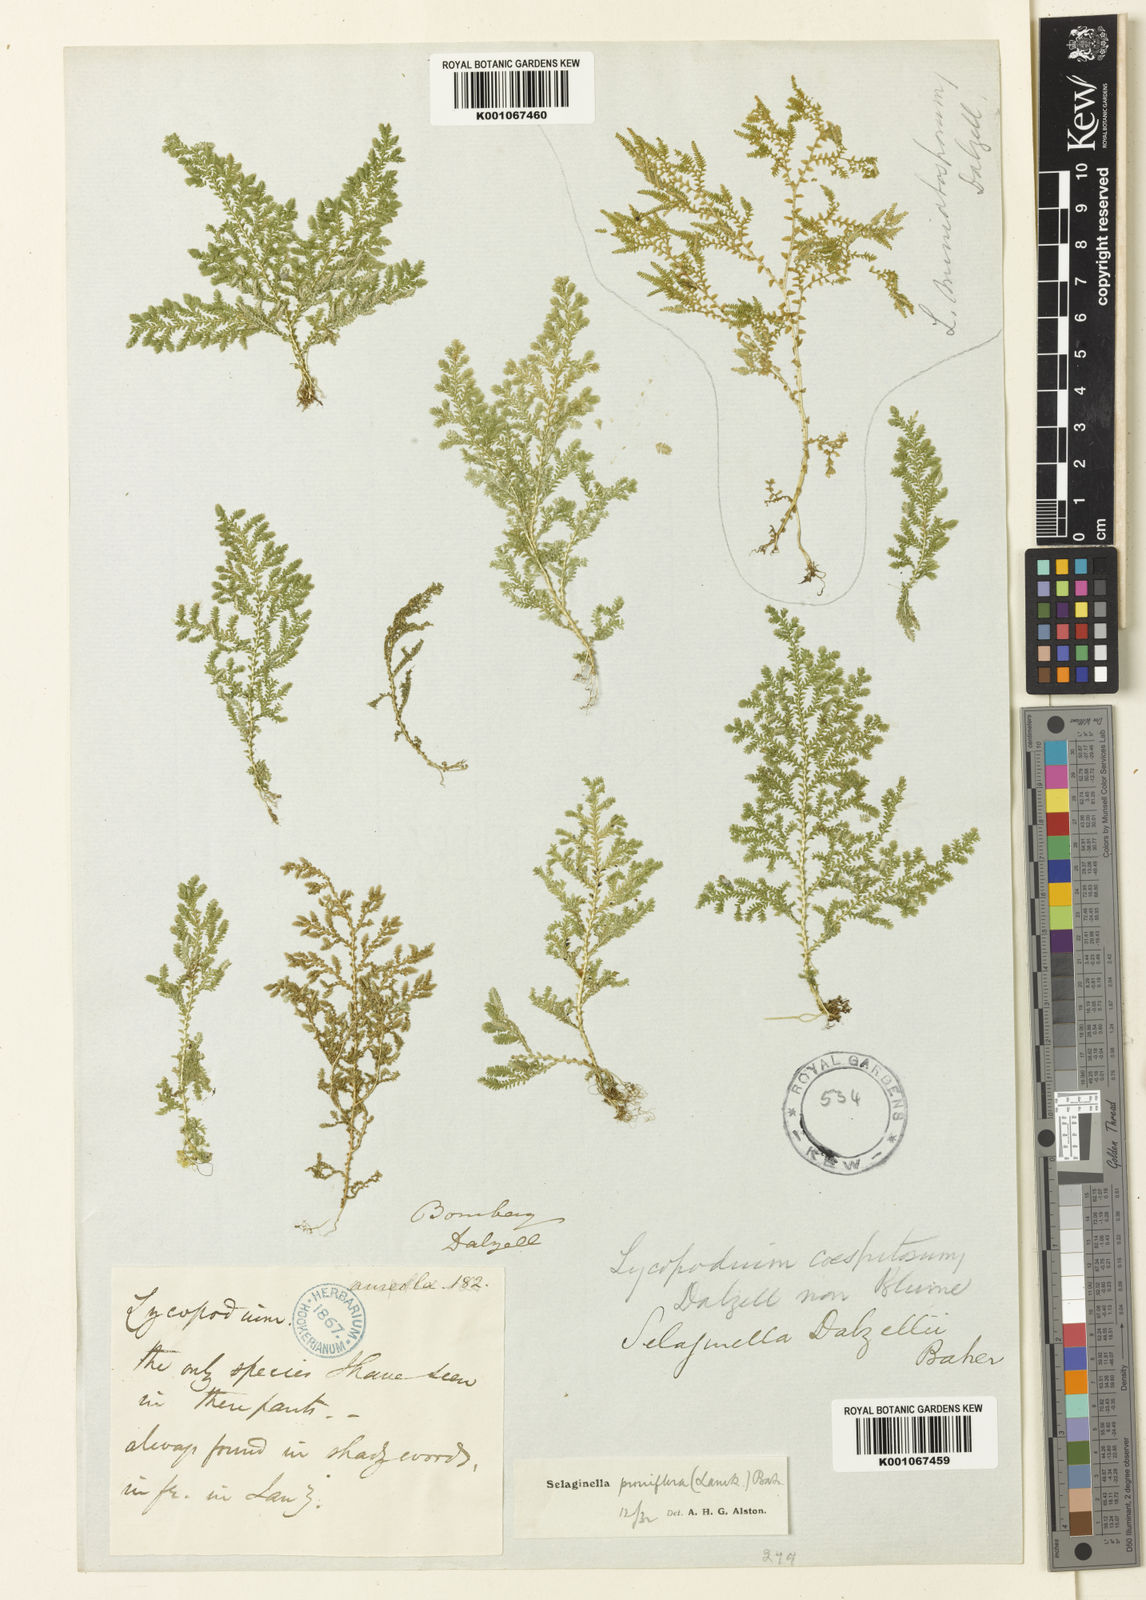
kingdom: Plantae
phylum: Tracheophyta
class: Lycopodiopsida
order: Selaginellales
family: Selaginellaceae
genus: Selaginella
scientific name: Selaginella proniflora
